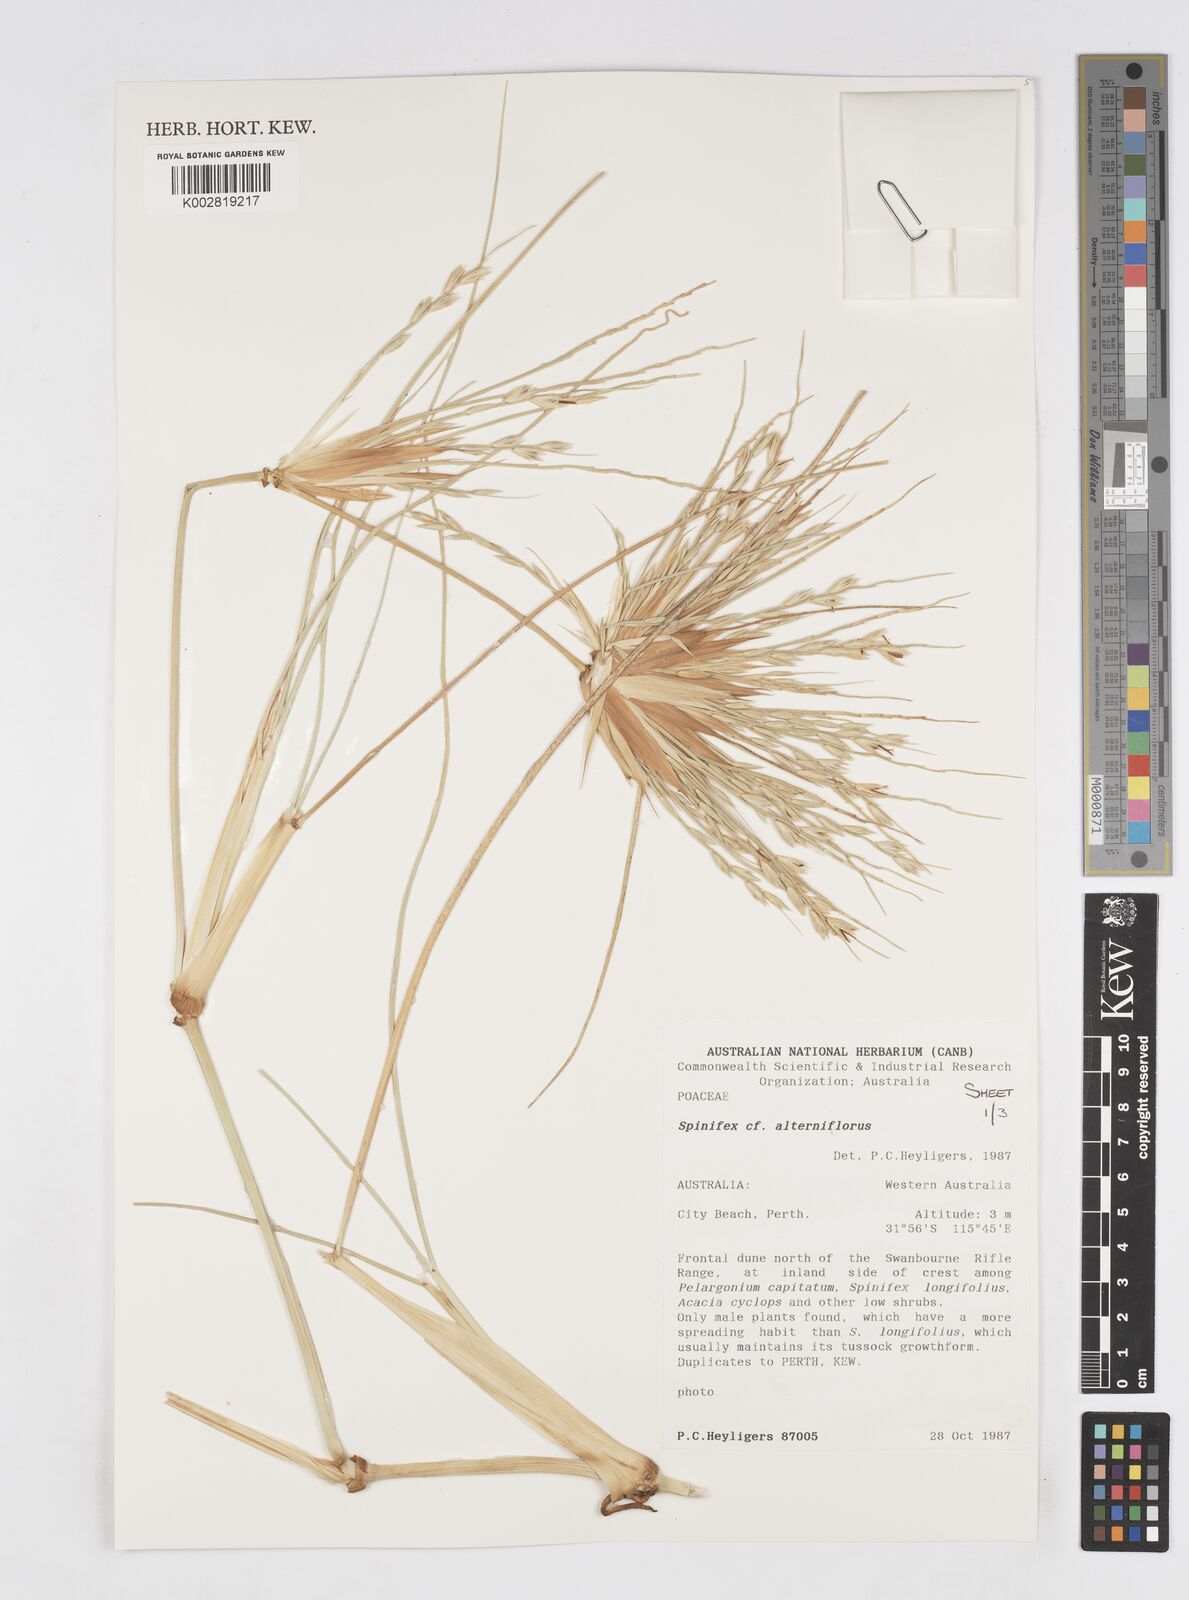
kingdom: Plantae
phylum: Tracheophyta
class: Liliopsida
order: Poales
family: Poaceae
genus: Spinifex
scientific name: Spinifex alterniflorus
